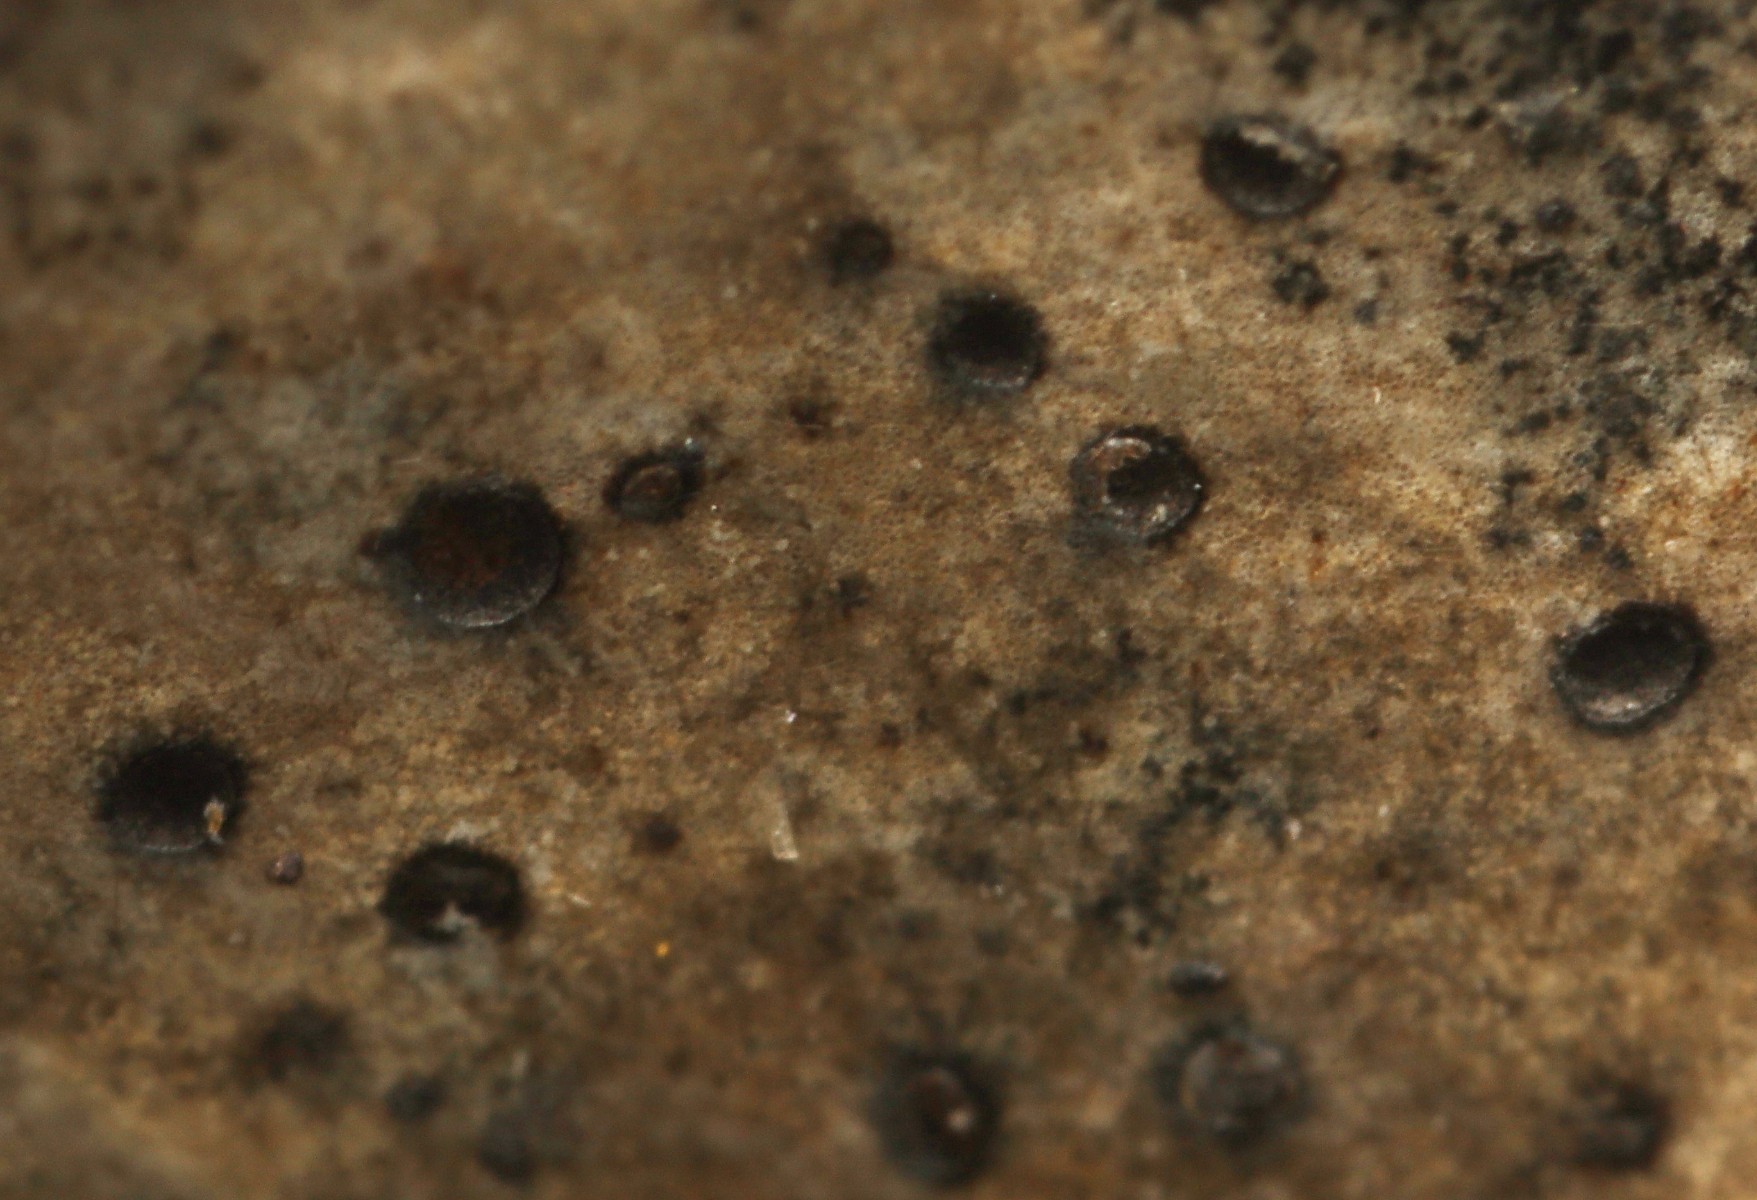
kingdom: Fungi
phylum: Ascomycota
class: Leotiomycetes
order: Helotiales
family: Cenangiaceae
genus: Trochila
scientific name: Trochila ilicina
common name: kristtorn-lågskive
